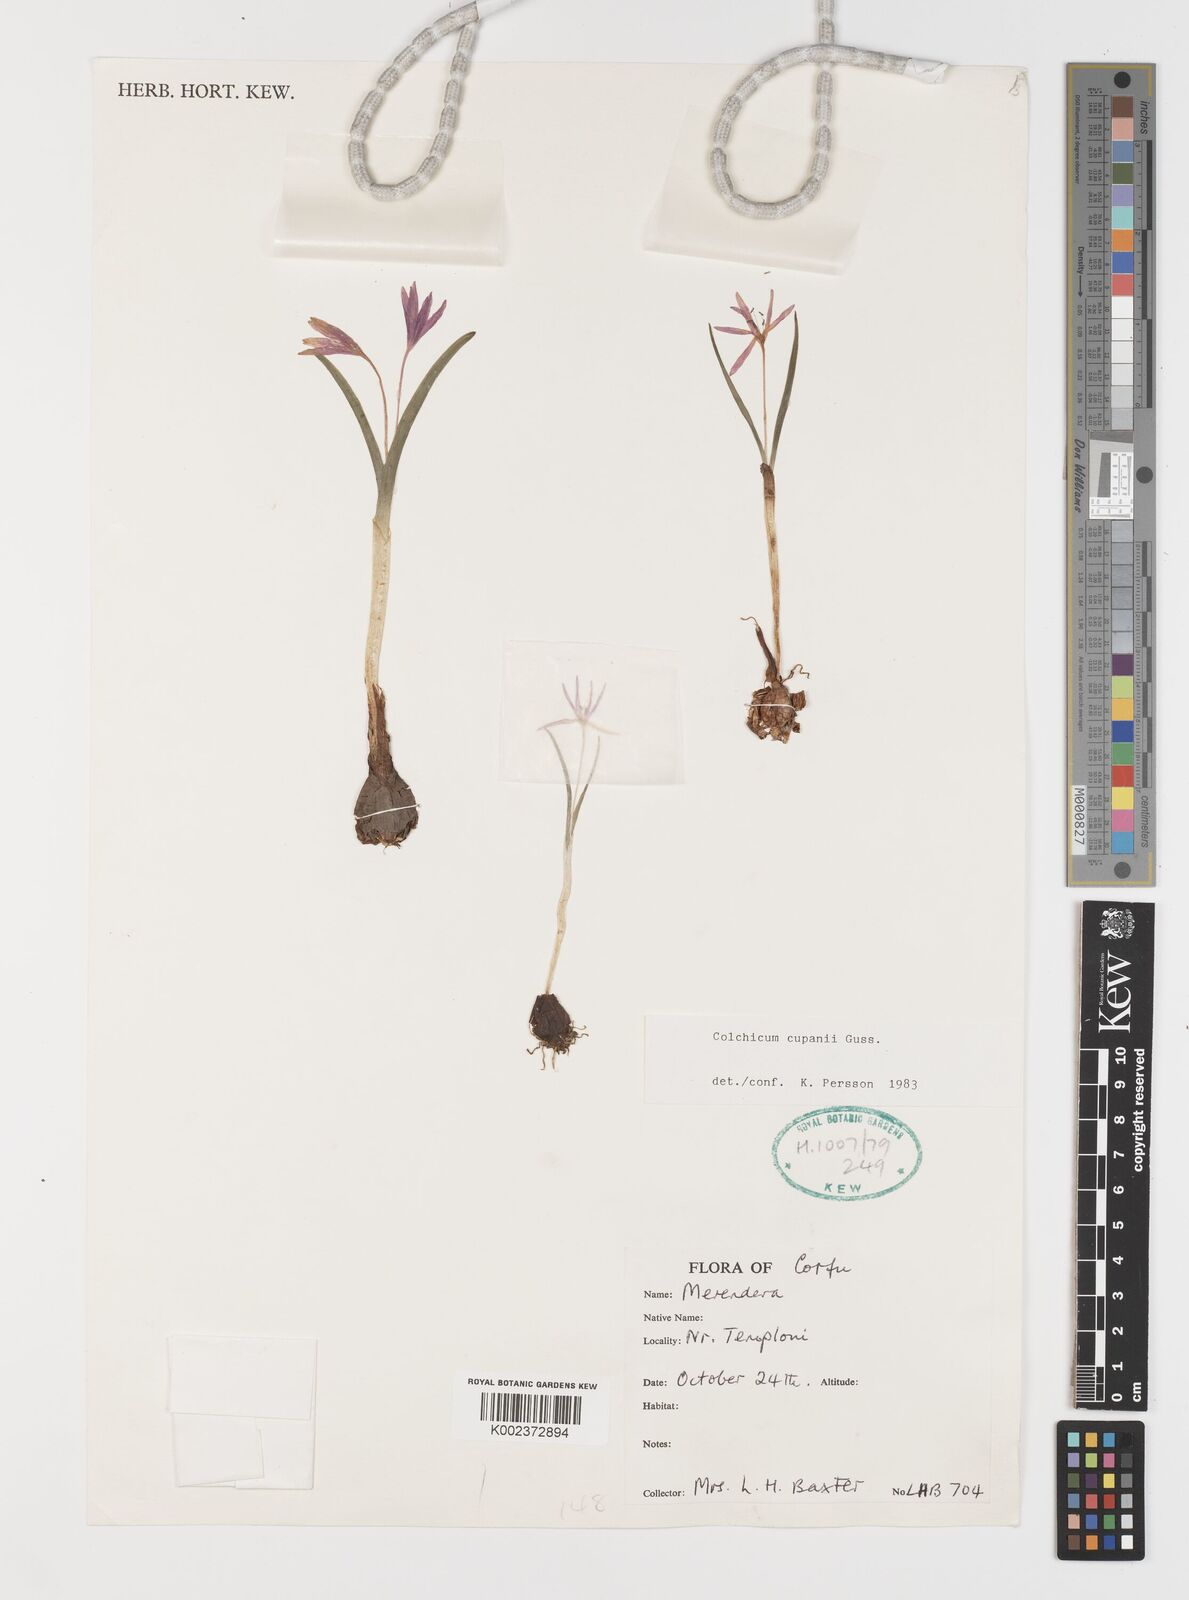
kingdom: Plantae
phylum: Tracheophyta
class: Liliopsida
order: Liliales
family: Colchicaceae
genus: Colchicum
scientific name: Colchicum cupanii
